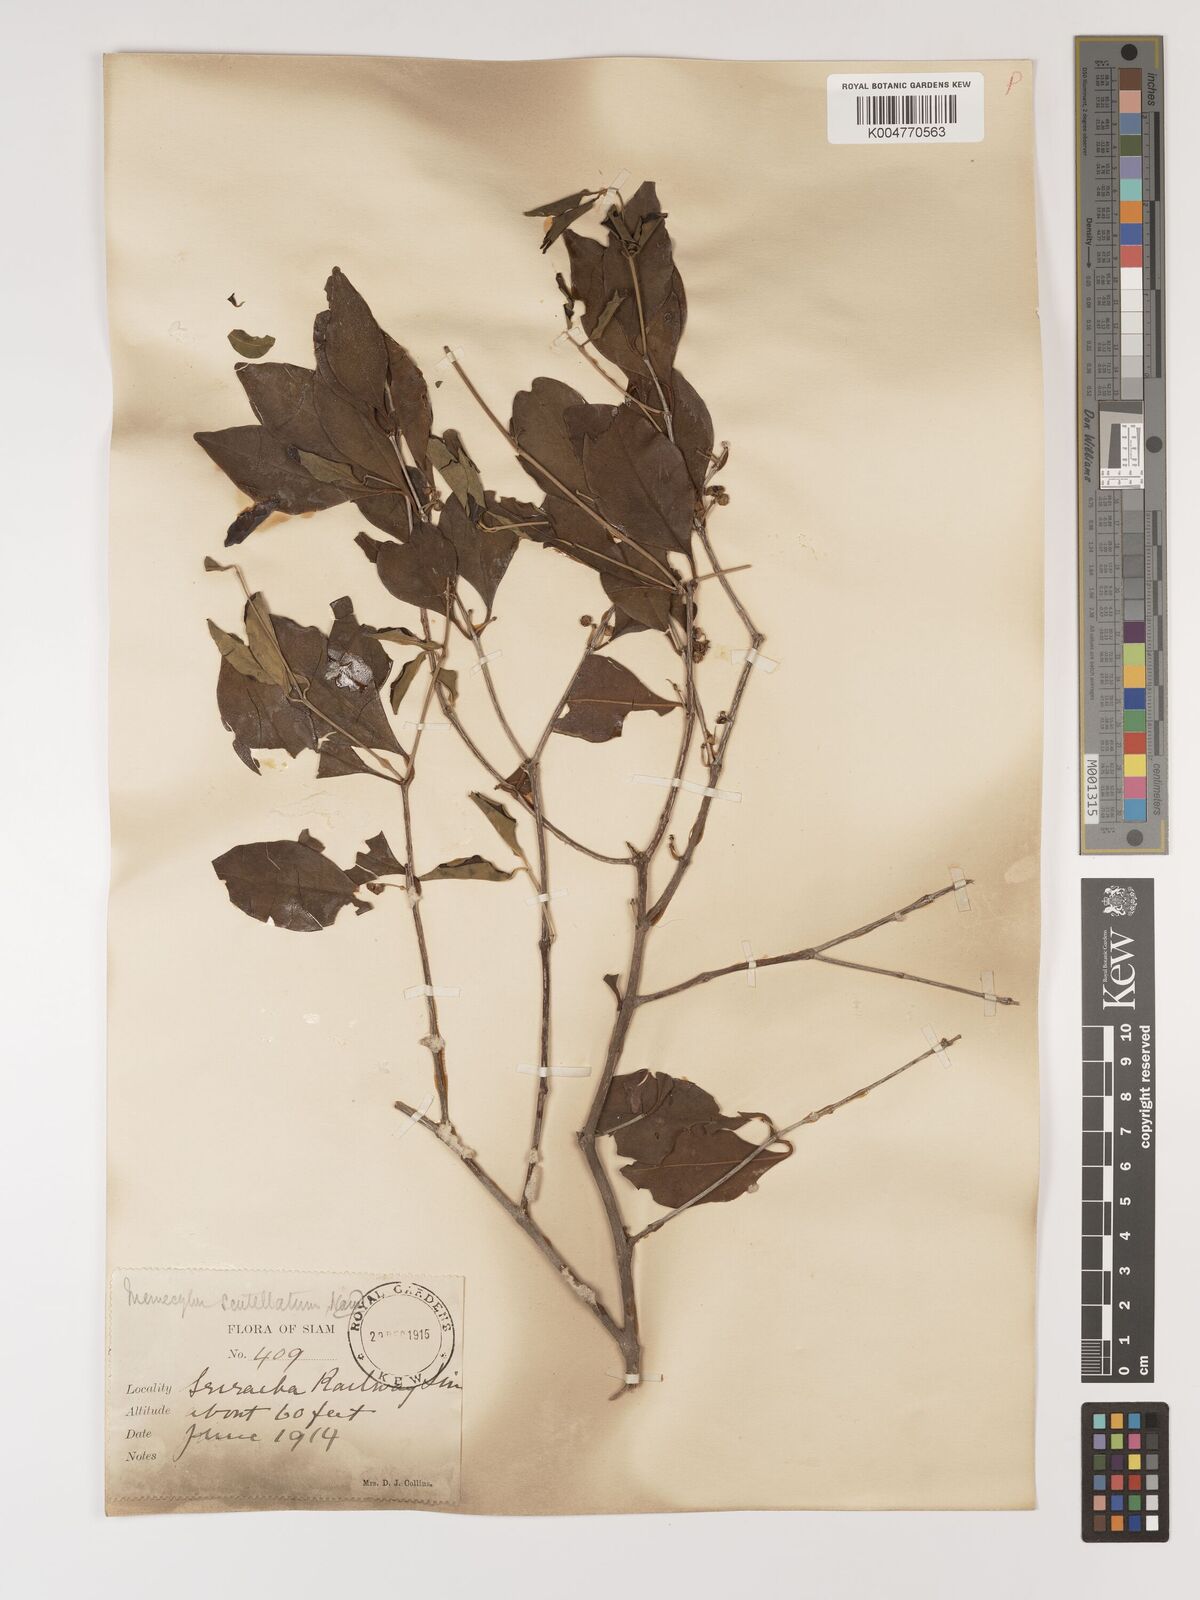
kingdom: Plantae
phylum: Tracheophyta
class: Magnoliopsida
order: Myrtales
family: Melastomataceae
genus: Memecylon
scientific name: Memecylon scutellatum
